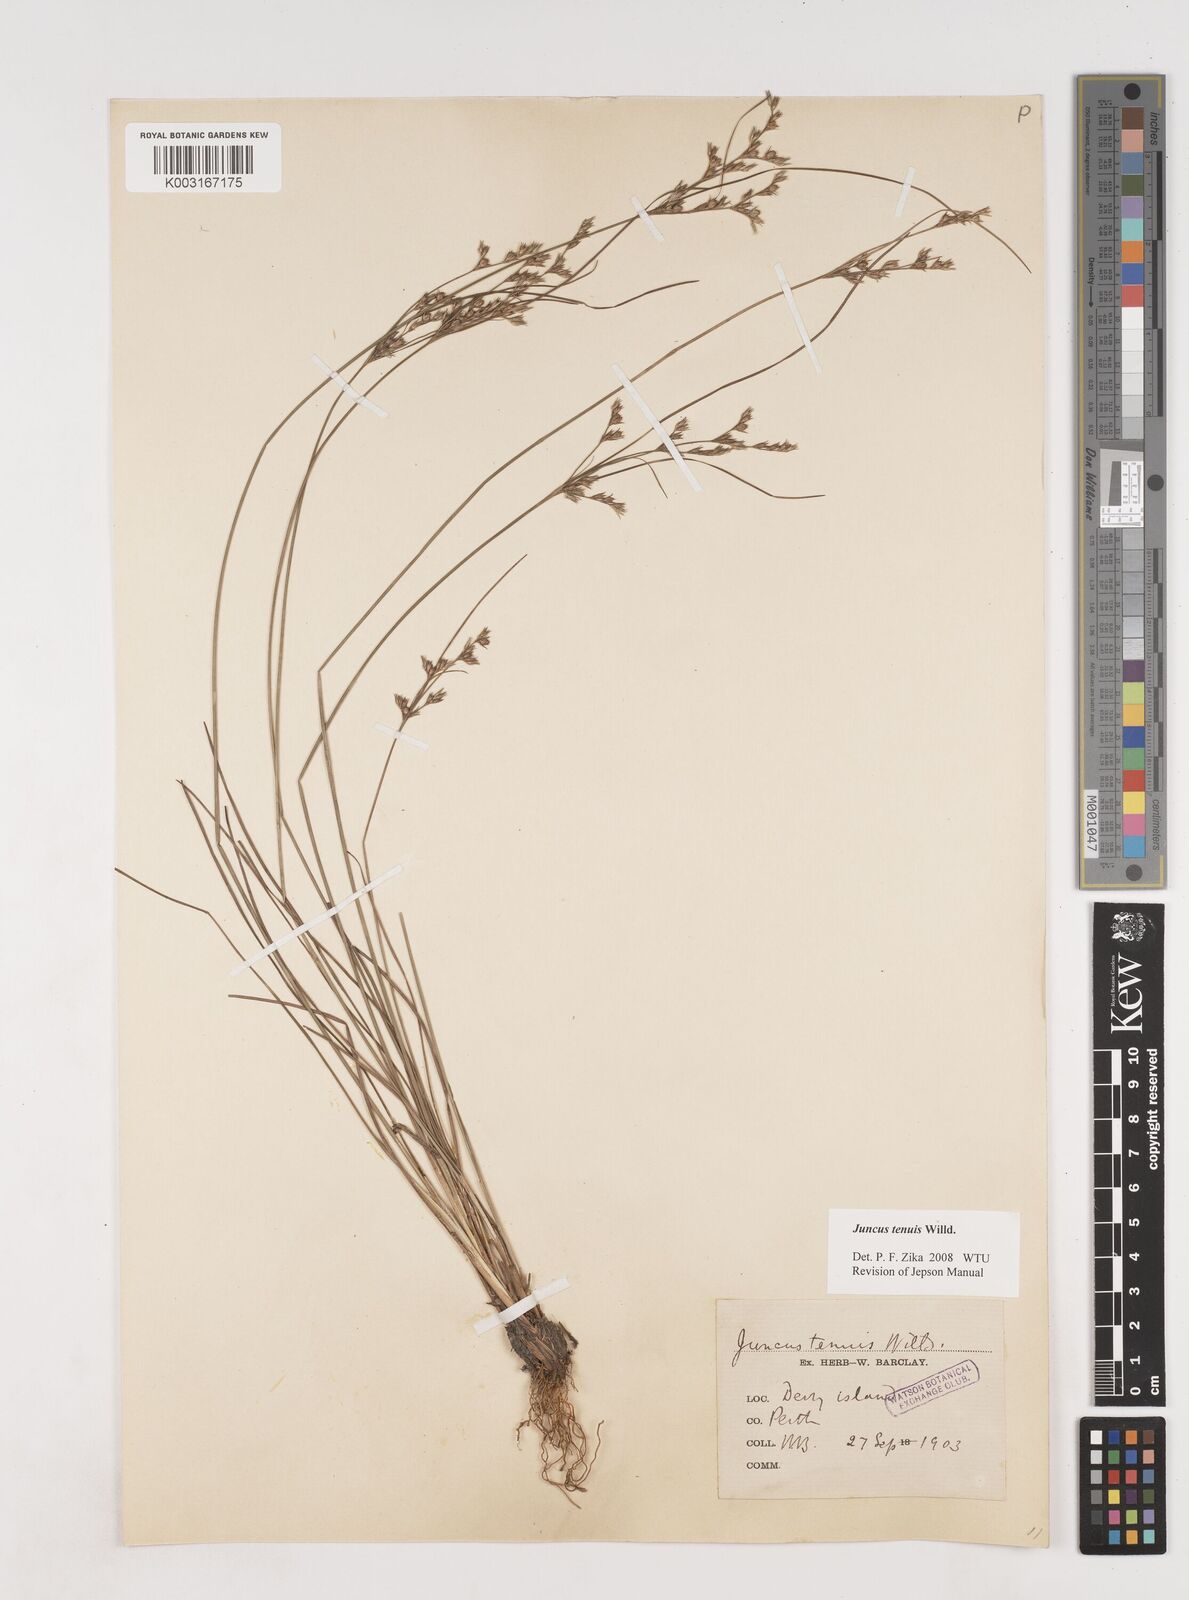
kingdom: Plantae
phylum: Tracheophyta
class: Liliopsida
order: Poales
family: Juncaceae
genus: Juncus
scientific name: Juncus tenuis
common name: Slender rush
